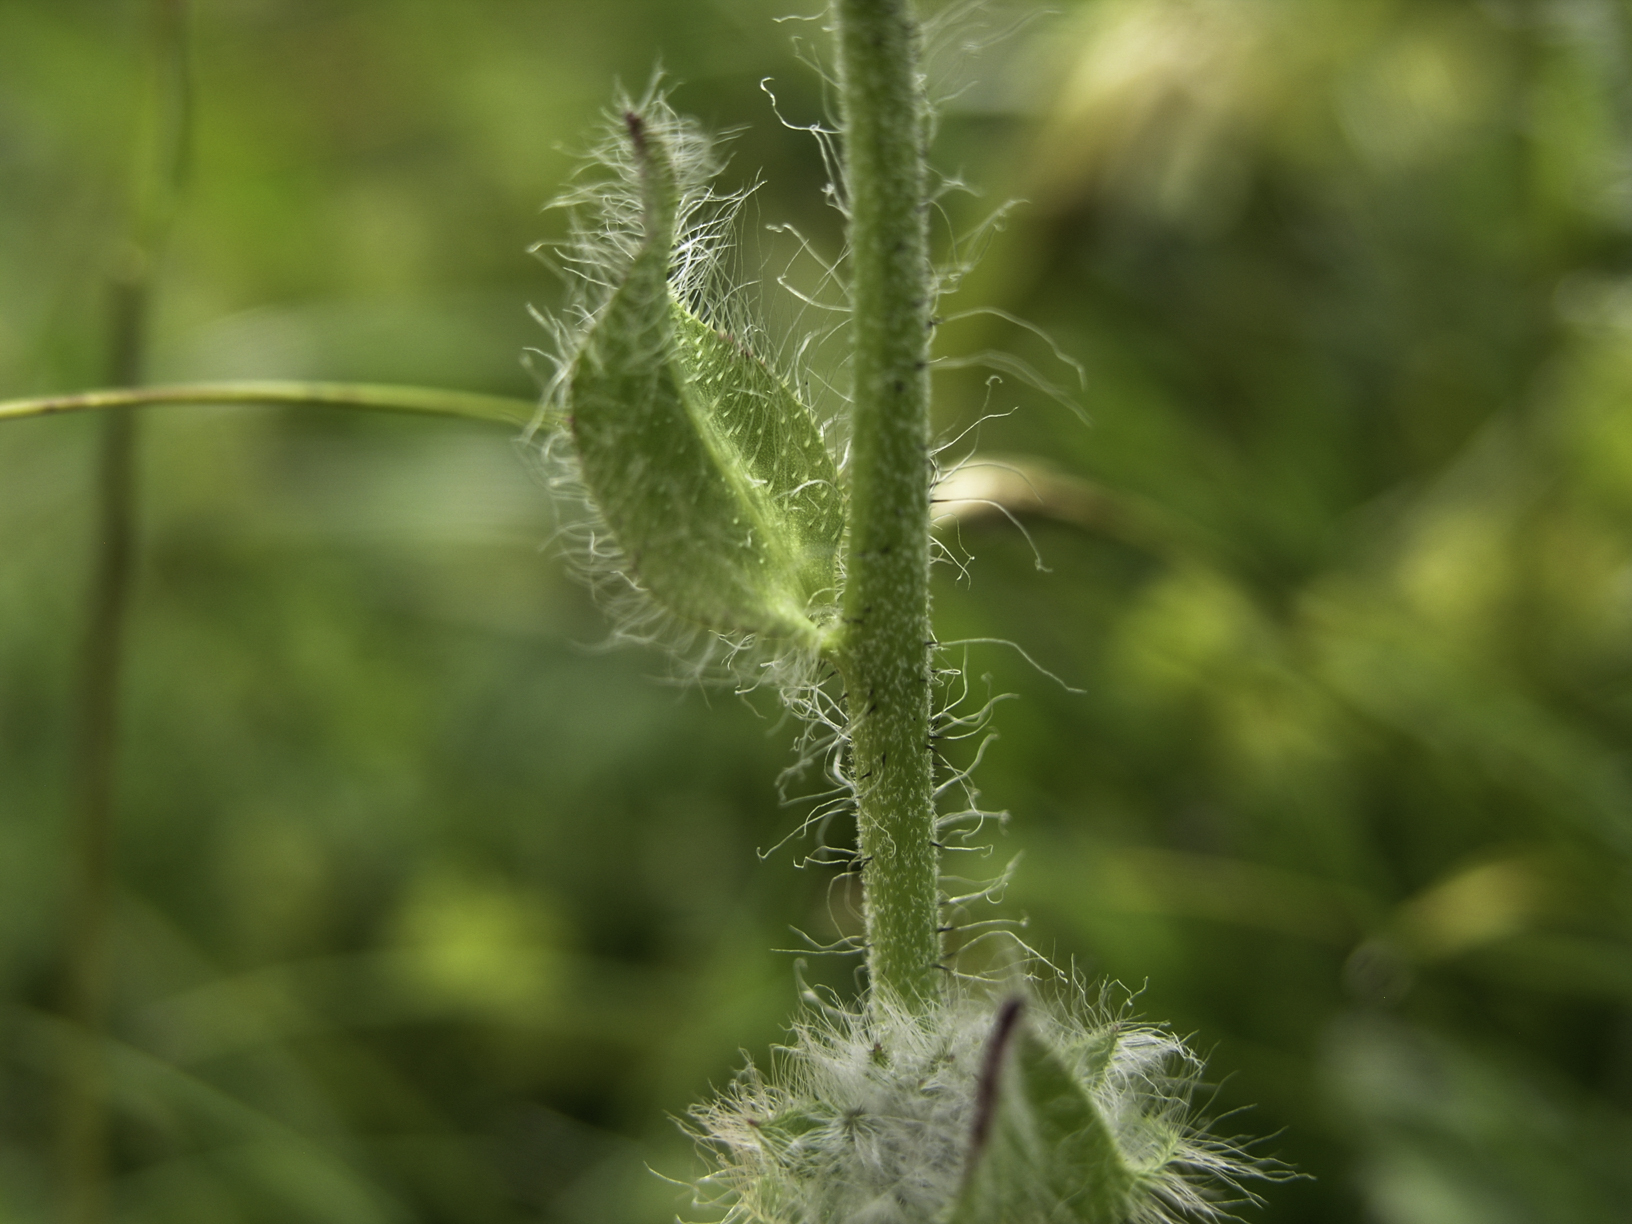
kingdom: Plantae
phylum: Tracheophyta
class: Magnoliopsida
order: Asterales
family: Asteraceae
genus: Hieracium
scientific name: Hieracium pilosum
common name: Fimbriate-pitted hawkweed
